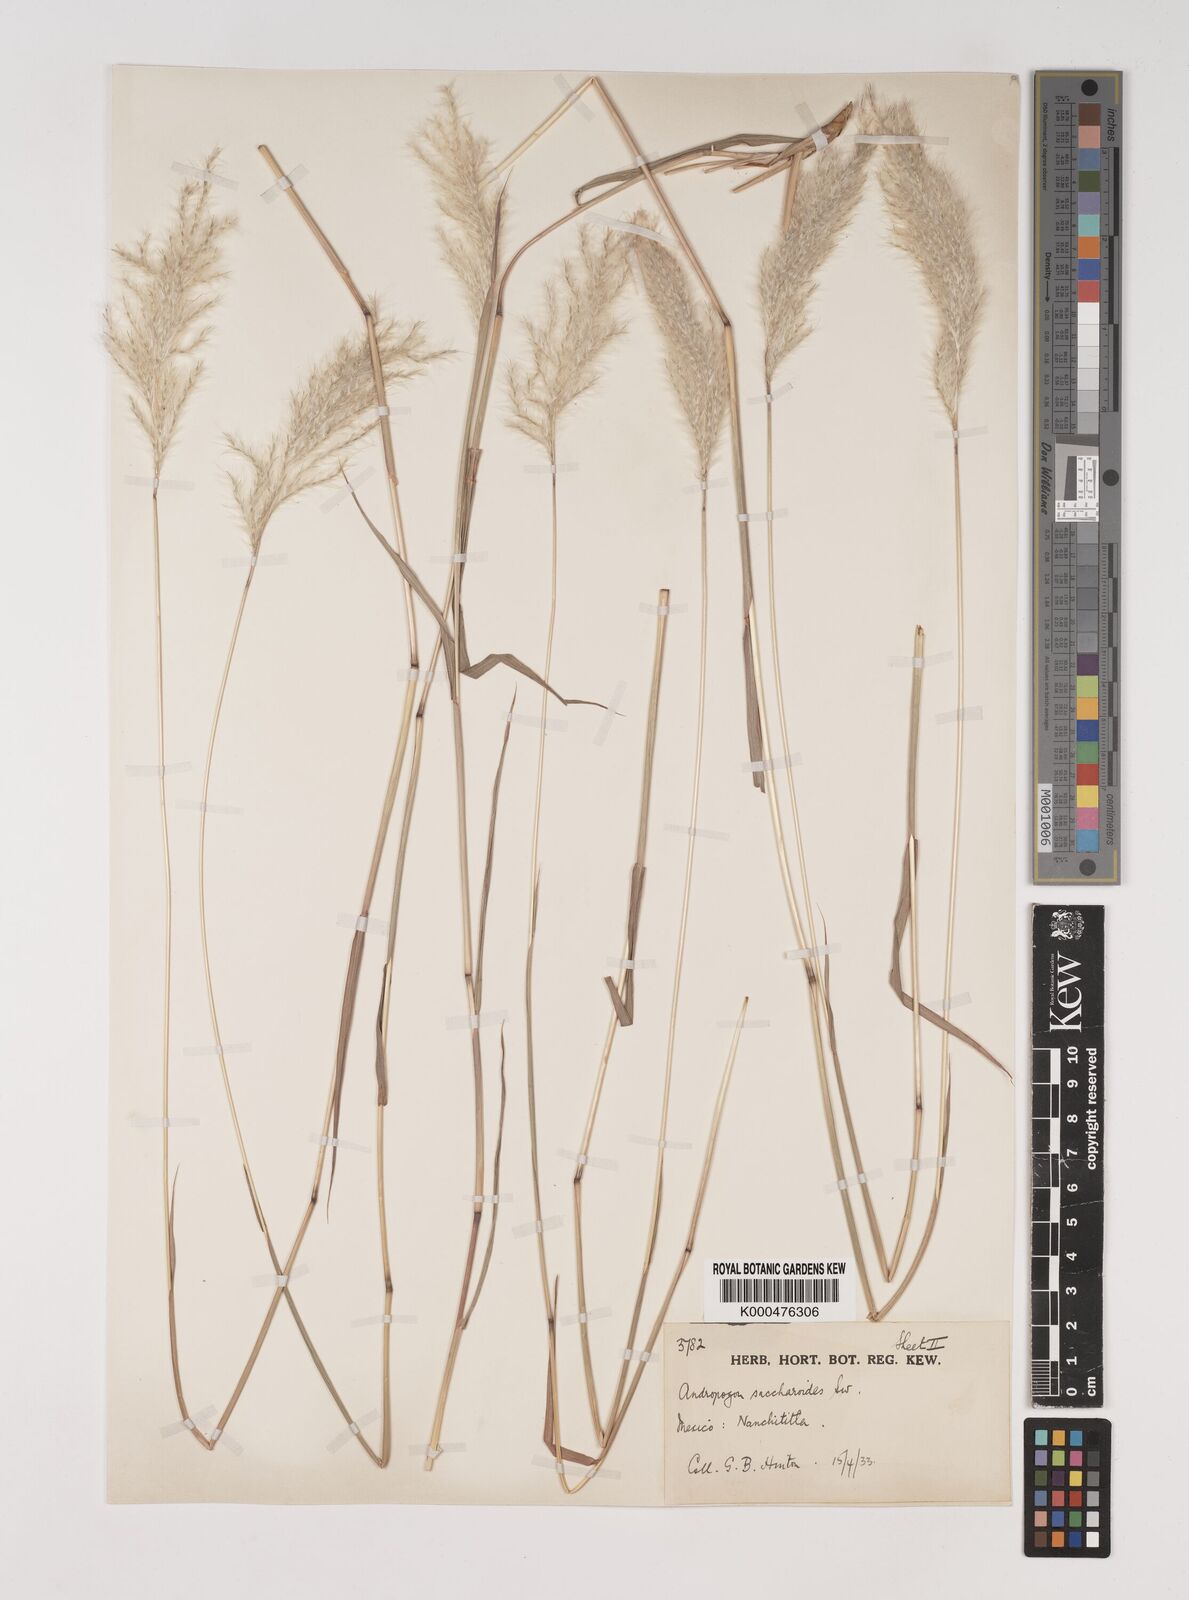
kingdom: Plantae
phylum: Tracheophyta
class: Liliopsida
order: Poales
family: Poaceae
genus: Bothriochloa
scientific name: Bothriochloa laguroides
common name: Silver bluestem
